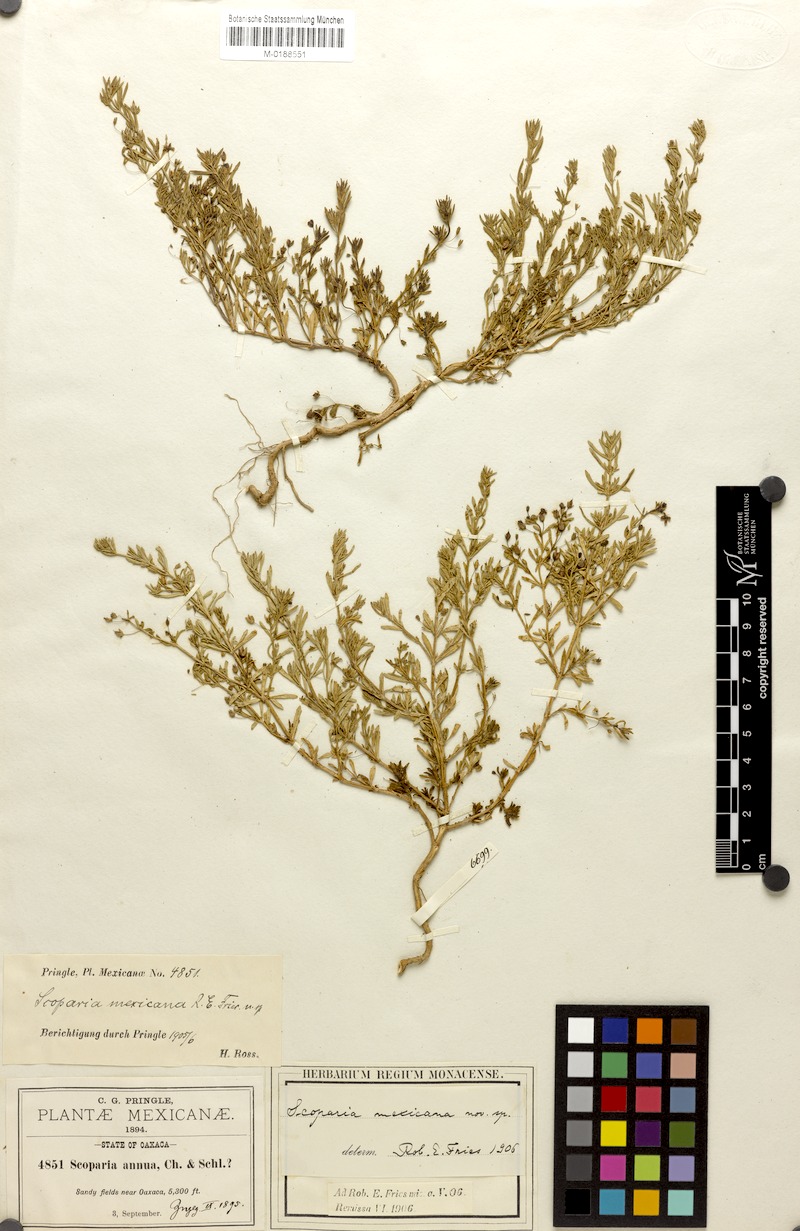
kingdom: Plantae
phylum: Tracheophyta
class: Magnoliopsida
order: Lamiales
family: Plantaginaceae
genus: Scoparia
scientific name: Scoparia mexicana
